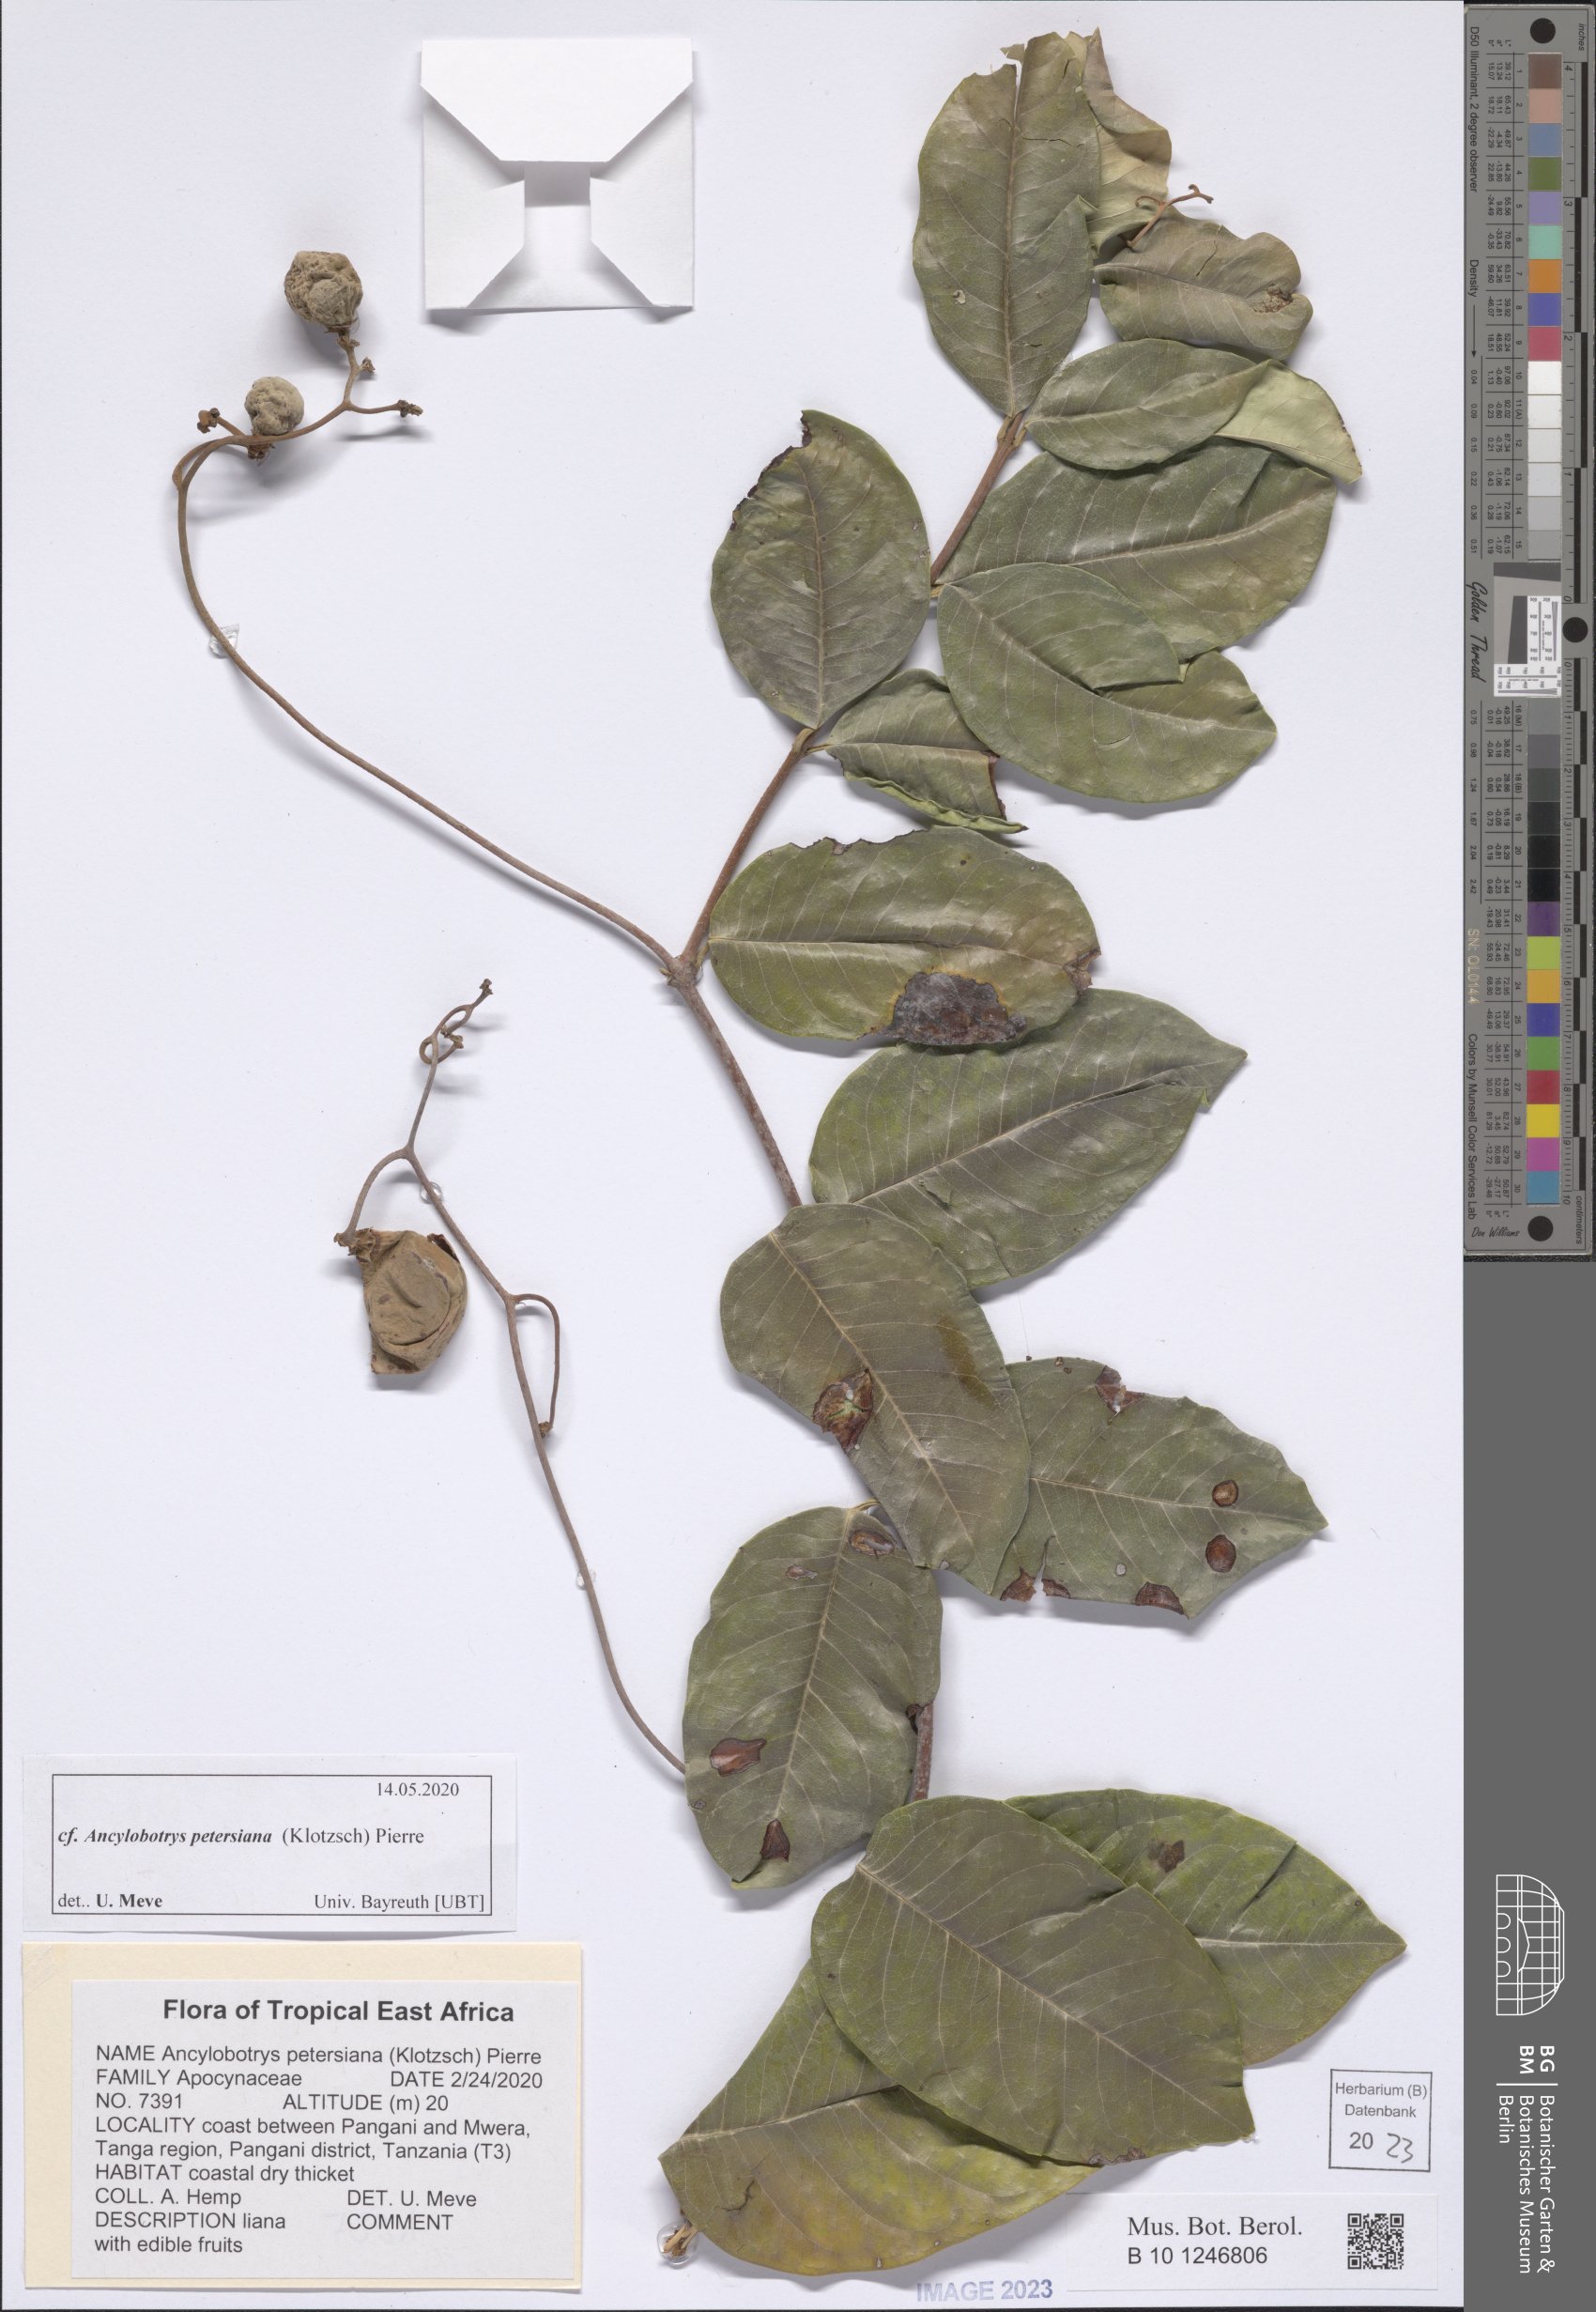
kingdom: Plantae
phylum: Tracheophyta
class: Magnoliopsida
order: Gentianales
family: Apocynaceae
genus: Ancylobotrys
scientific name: Ancylobotrys petersiana
